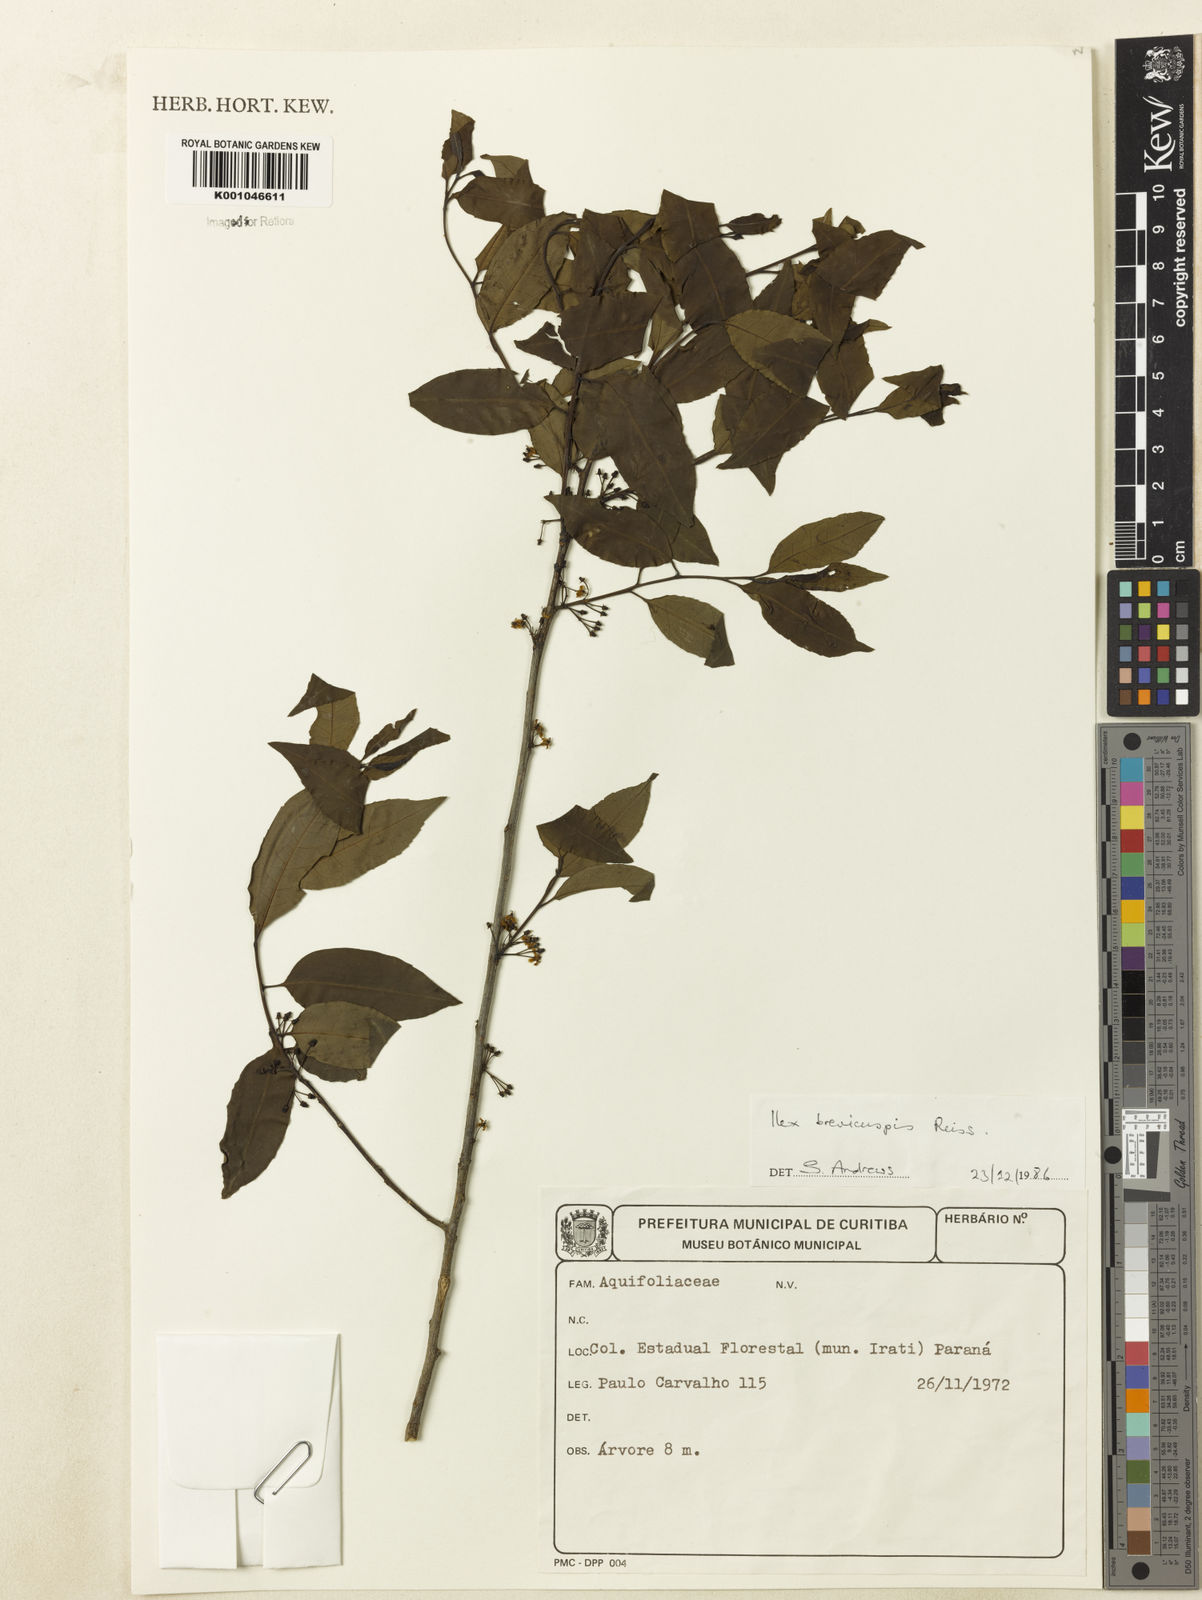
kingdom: Plantae
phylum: Tracheophyta
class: Magnoliopsida
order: Aquifoliales
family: Aquifoliaceae
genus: Ilex
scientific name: Ilex brevicuspis
